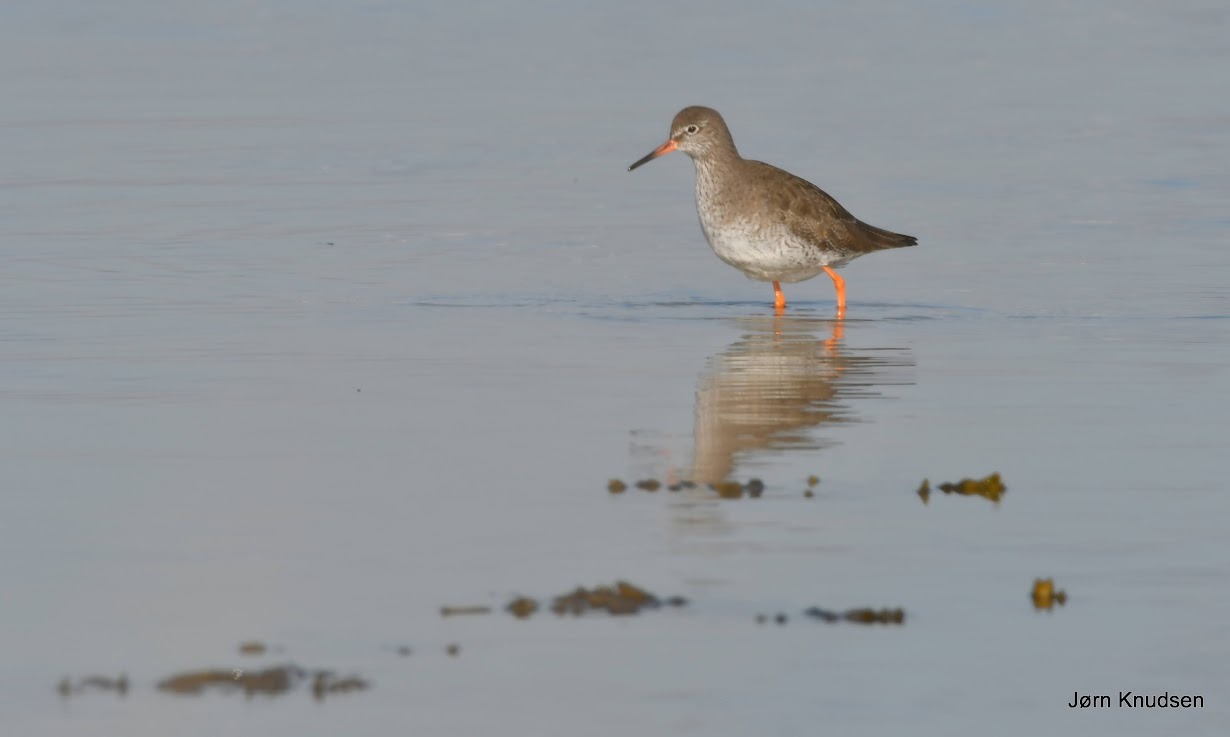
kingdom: Animalia
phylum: Chordata
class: Aves
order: Charadriiformes
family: Scolopacidae
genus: Tringa
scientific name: Tringa totanus
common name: Rødben
